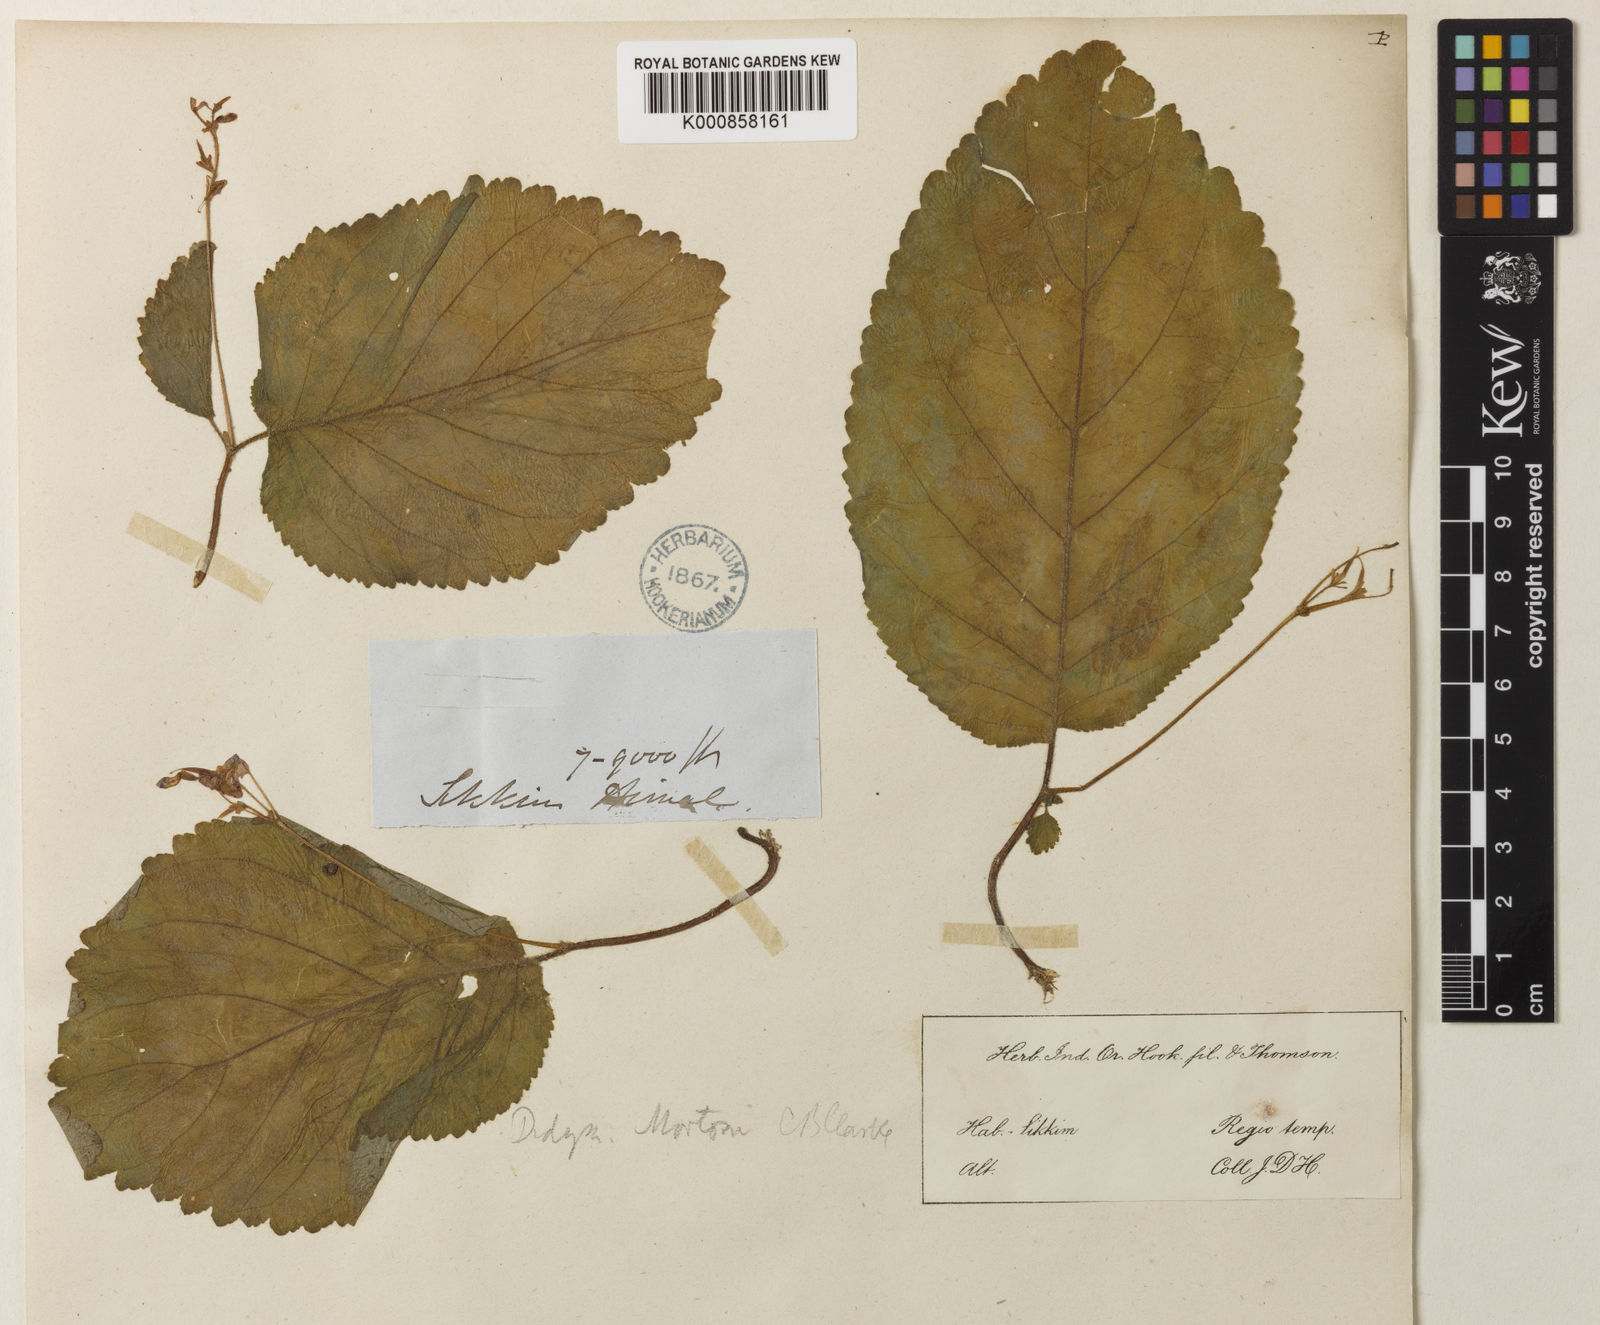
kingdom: Plantae
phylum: Tracheophyta
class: Magnoliopsida
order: Lamiales
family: Gesneriaceae
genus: Henckelia
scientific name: Henckelia
